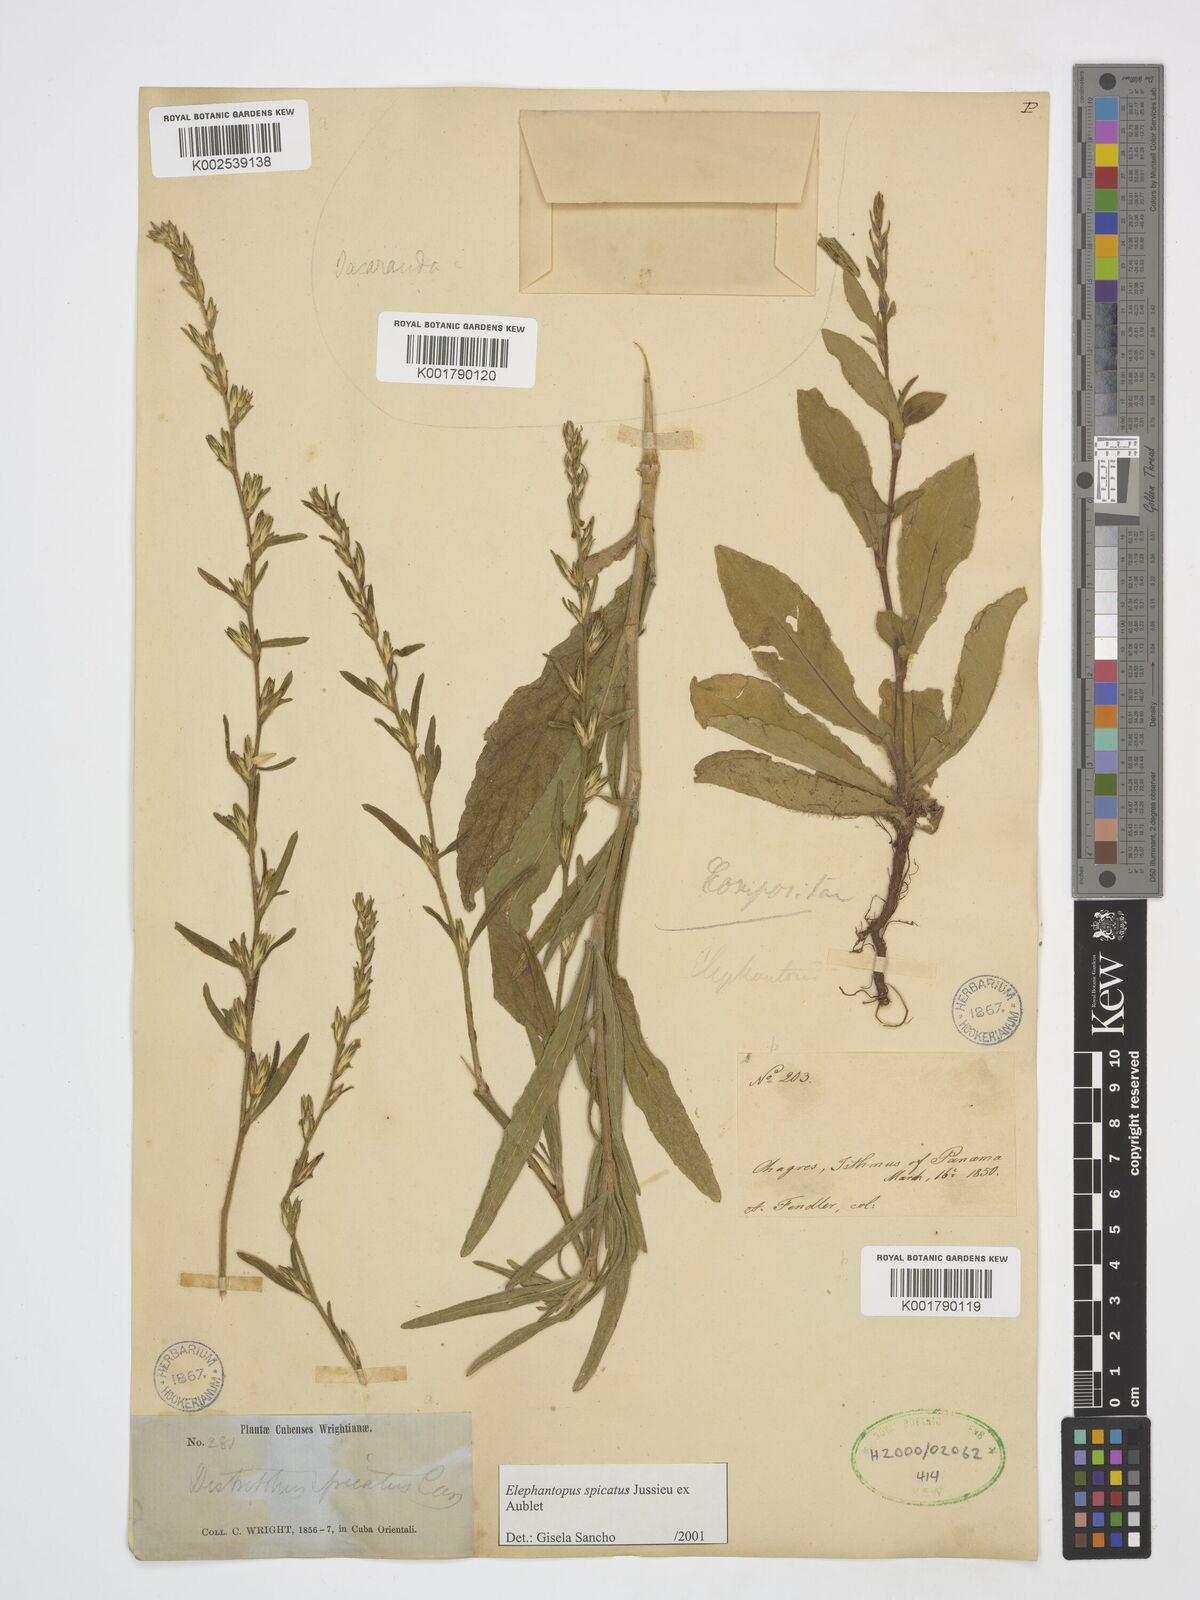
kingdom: Plantae
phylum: Tracheophyta
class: Magnoliopsida
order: Asterales
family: Asteraceae
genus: Pseudelephantopus
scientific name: Pseudelephantopus spicatus
